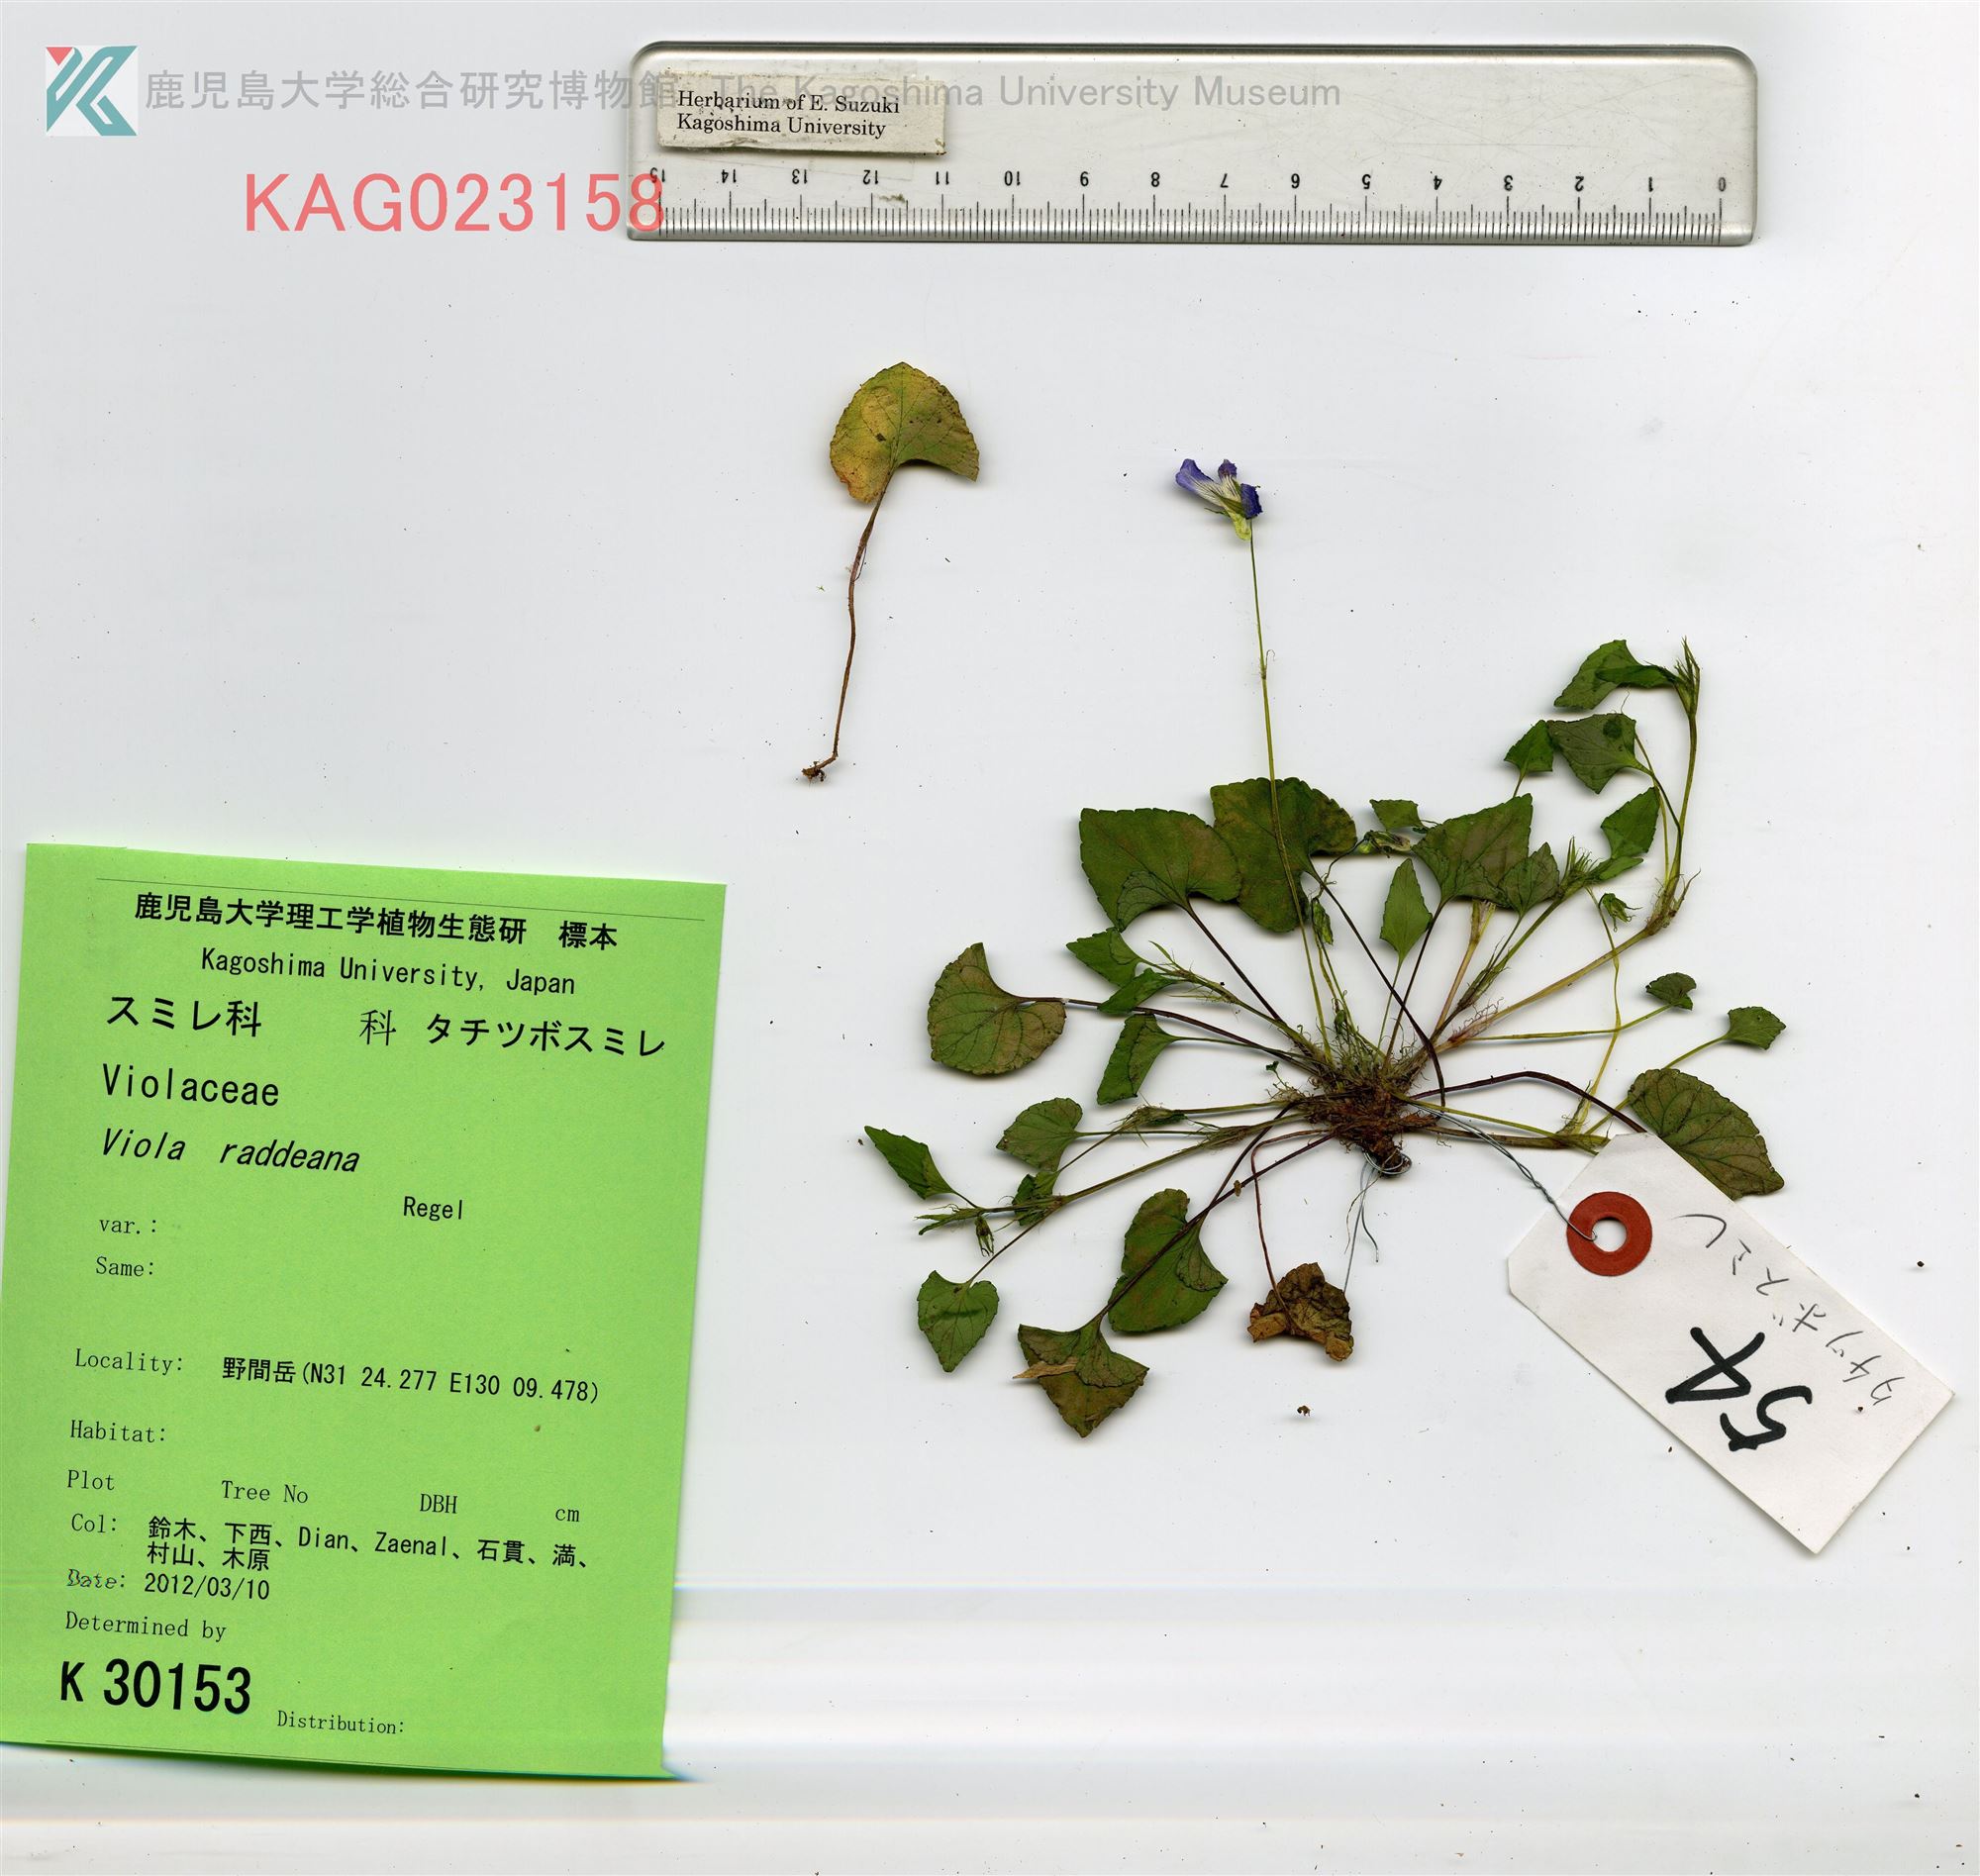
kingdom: Plantae
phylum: Tracheophyta
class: Magnoliopsida
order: Malpighiales
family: Violaceae
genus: Viola
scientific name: Viola grypoceras
